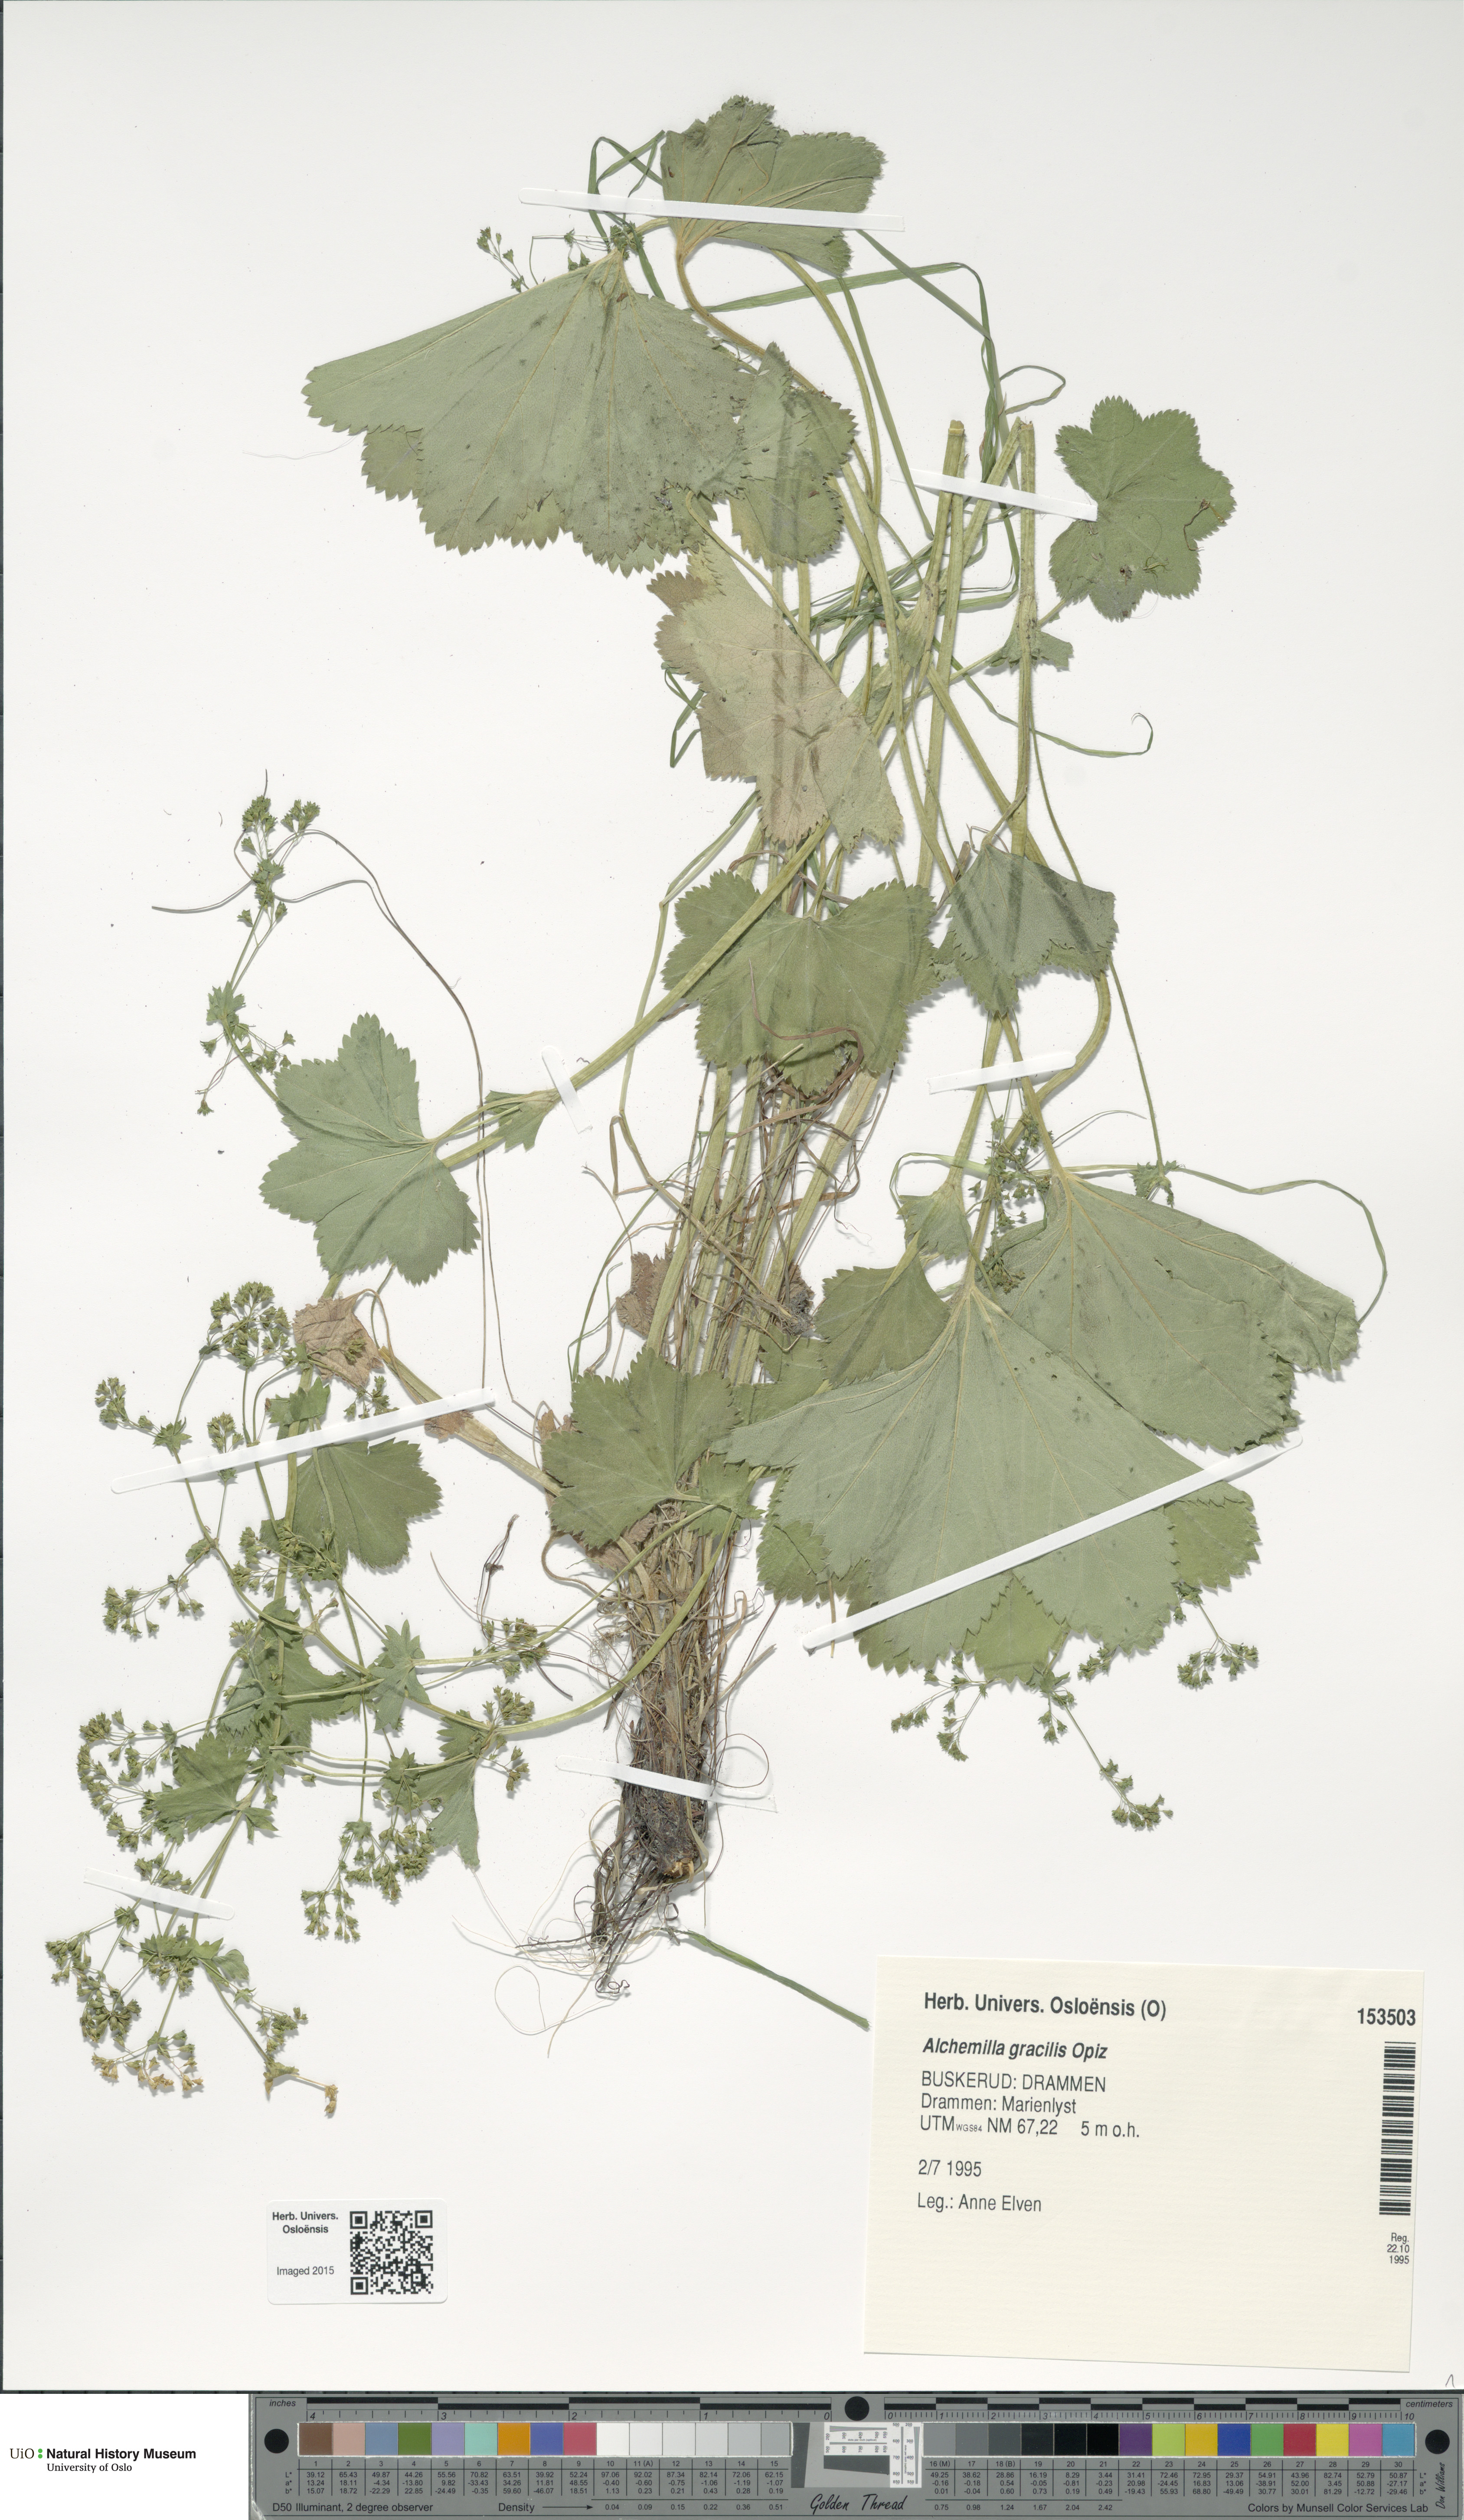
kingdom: Plantae
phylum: Tracheophyta
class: Magnoliopsida
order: Rosales
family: Rosaceae
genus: Alchemilla
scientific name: Alchemilla micans
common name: Gleaming lady's mantle
